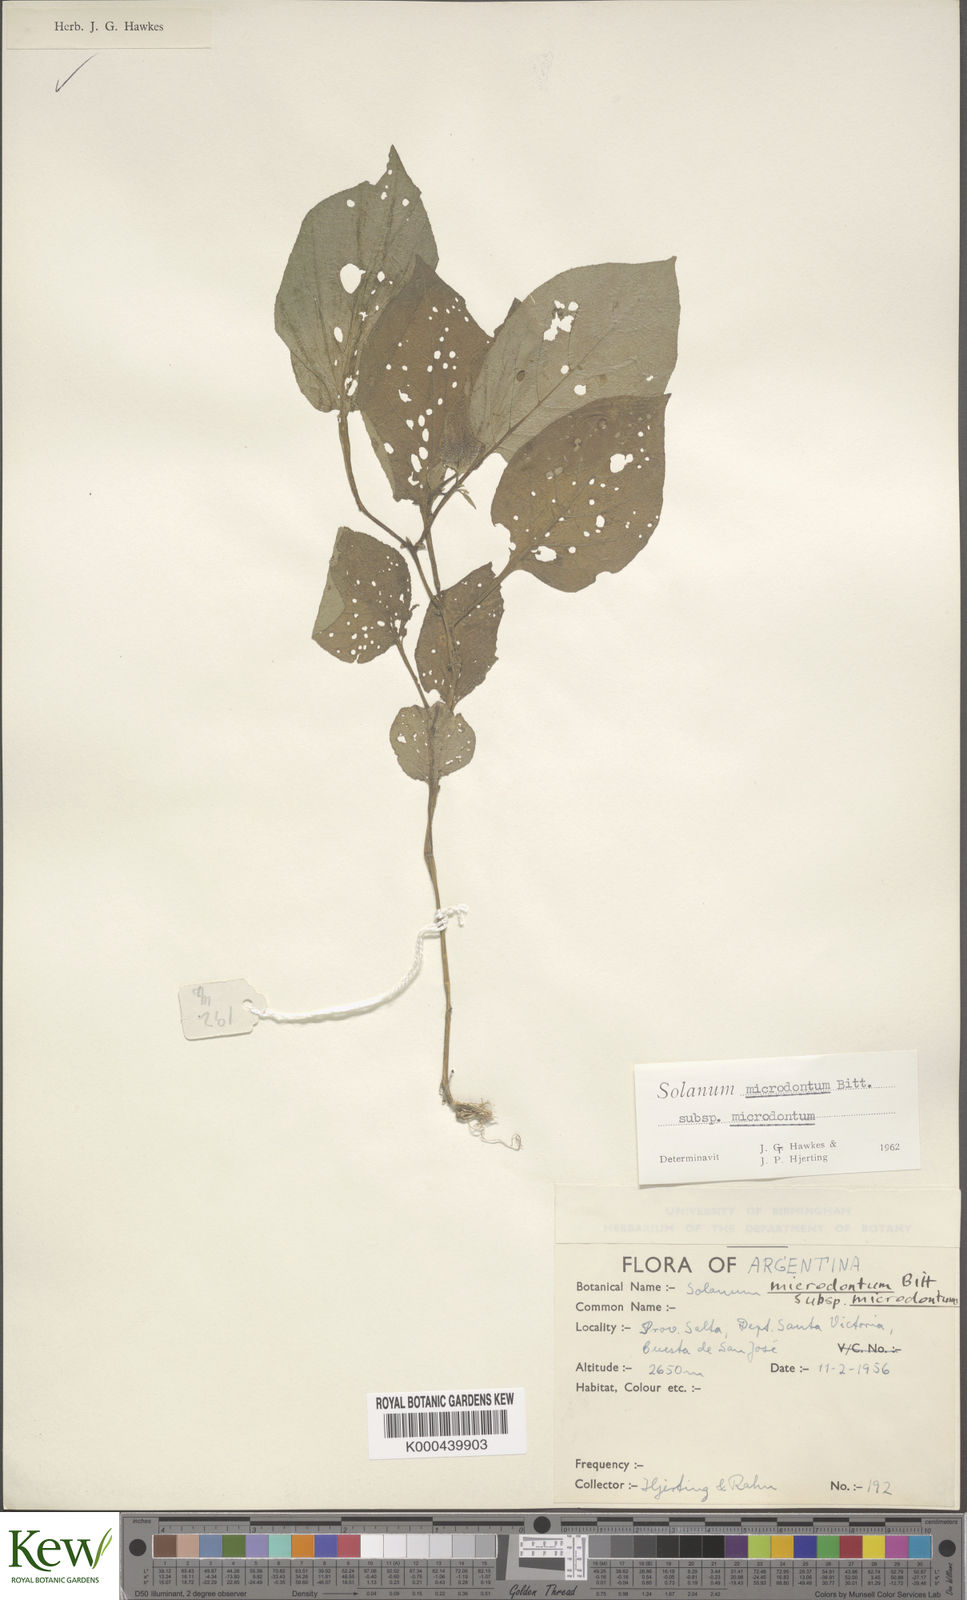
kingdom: Plantae
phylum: Tracheophyta
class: Magnoliopsida
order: Solanales
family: Solanaceae
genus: Solanum
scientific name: Solanum microdontum
